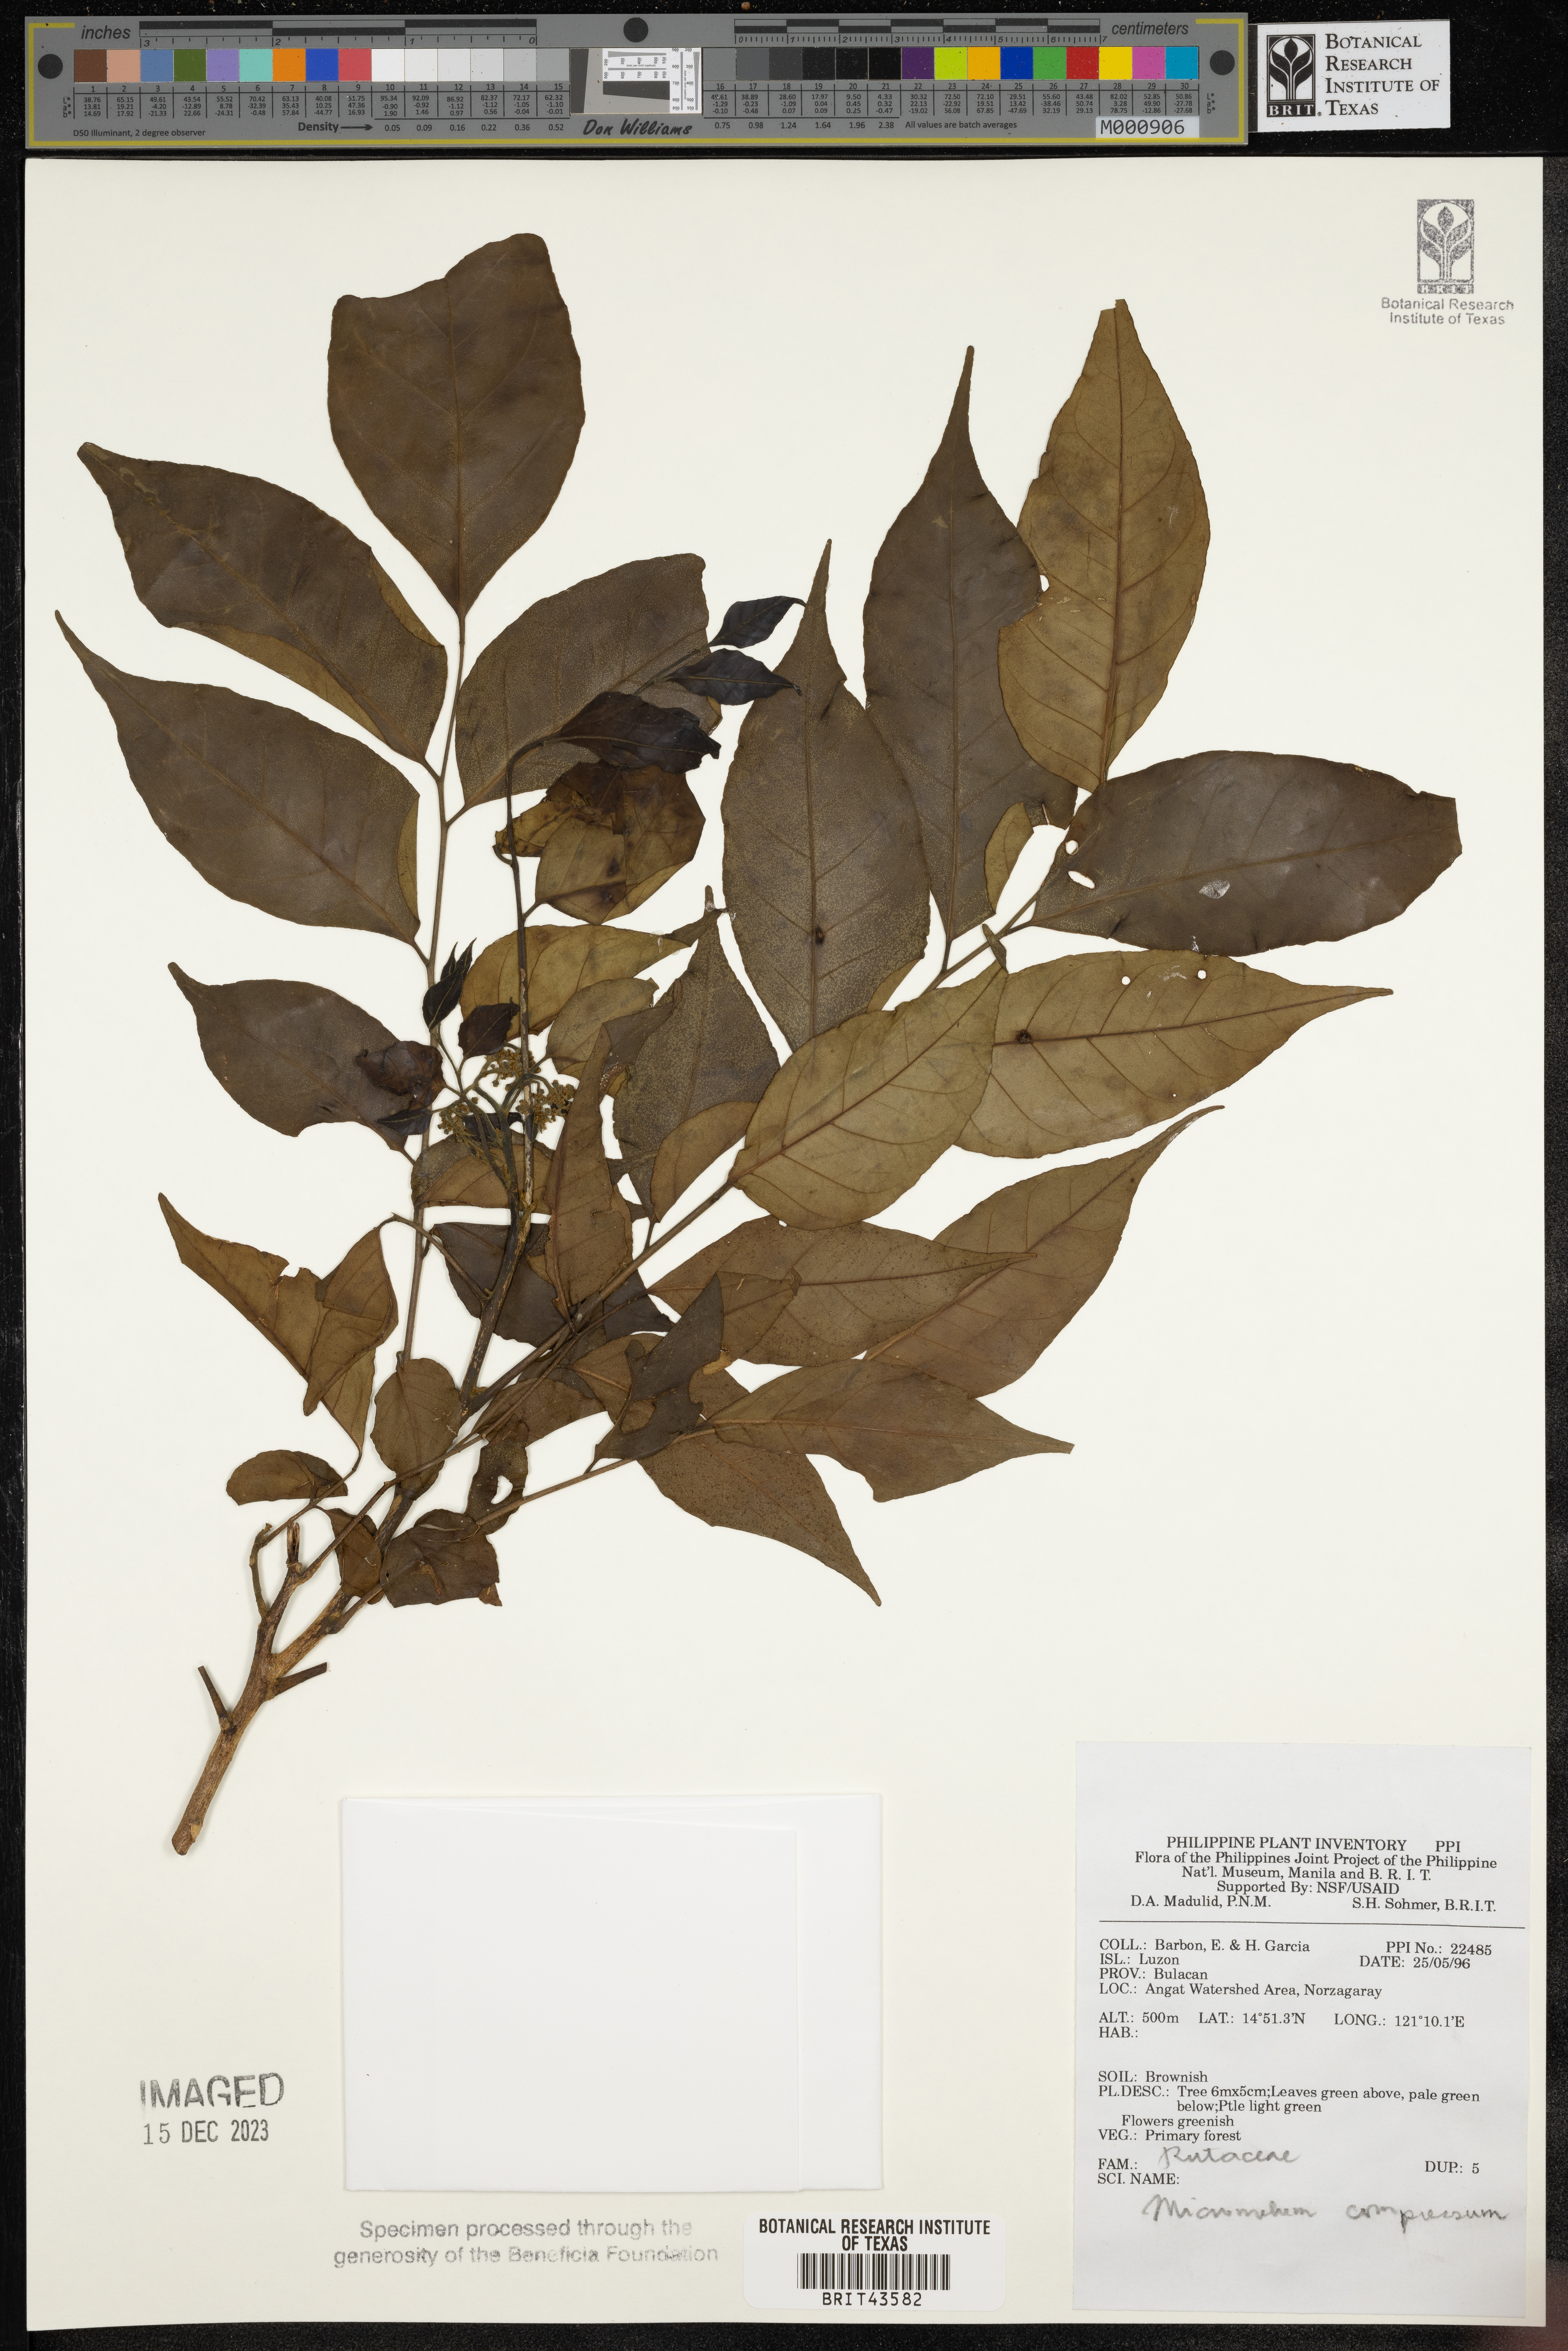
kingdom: Plantae
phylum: Tracheophyta
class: Magnoliopsida
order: Sapindales
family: Rutaceae
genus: Micromelum
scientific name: Micromelum compressum
